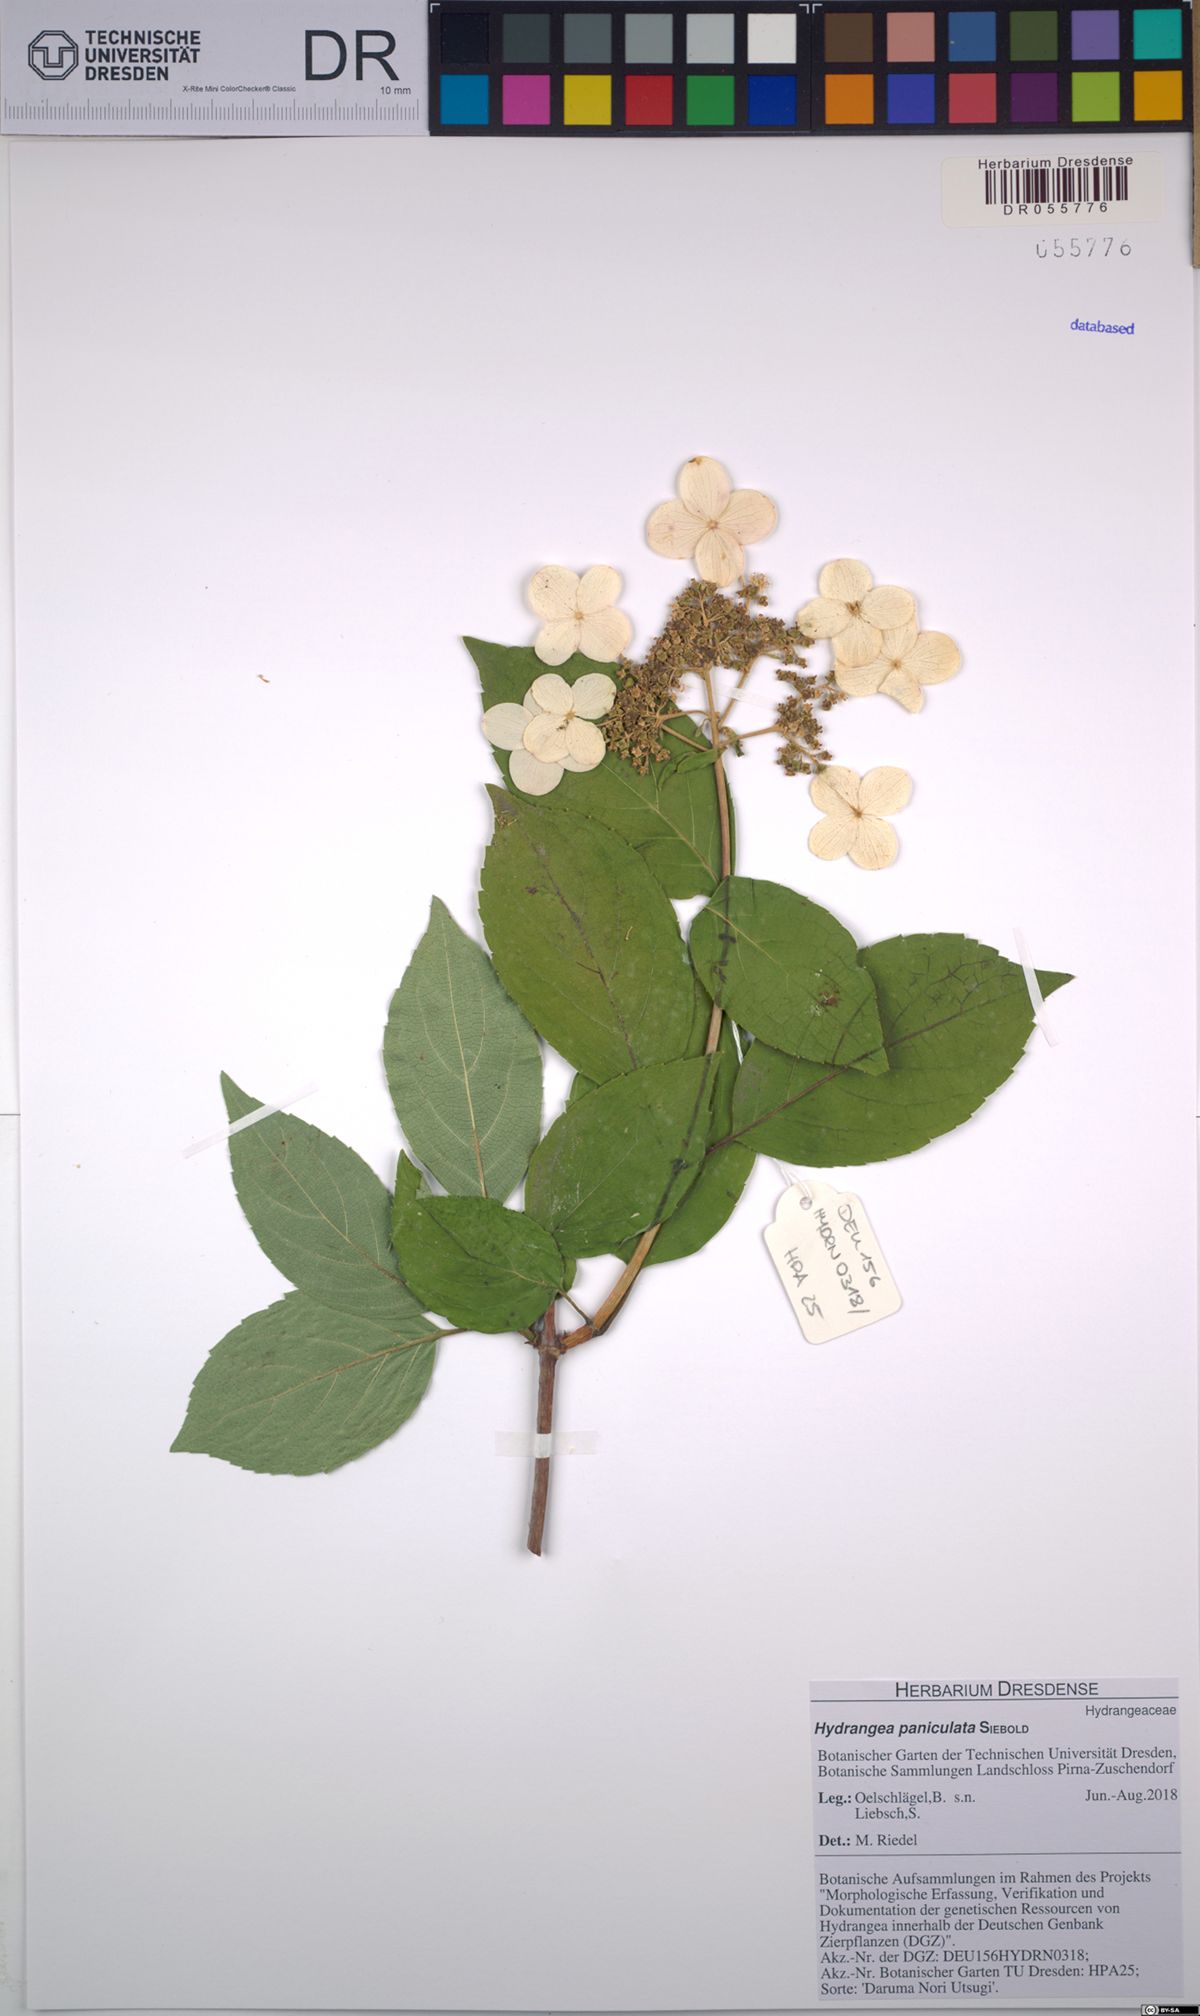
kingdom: Plantae
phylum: Tracheophyta
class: Magnoliopsida
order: Cornales
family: Hydrangeaceae
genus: Hydrangea
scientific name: Hydrangea paniculata
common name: Panicled hydrangea
